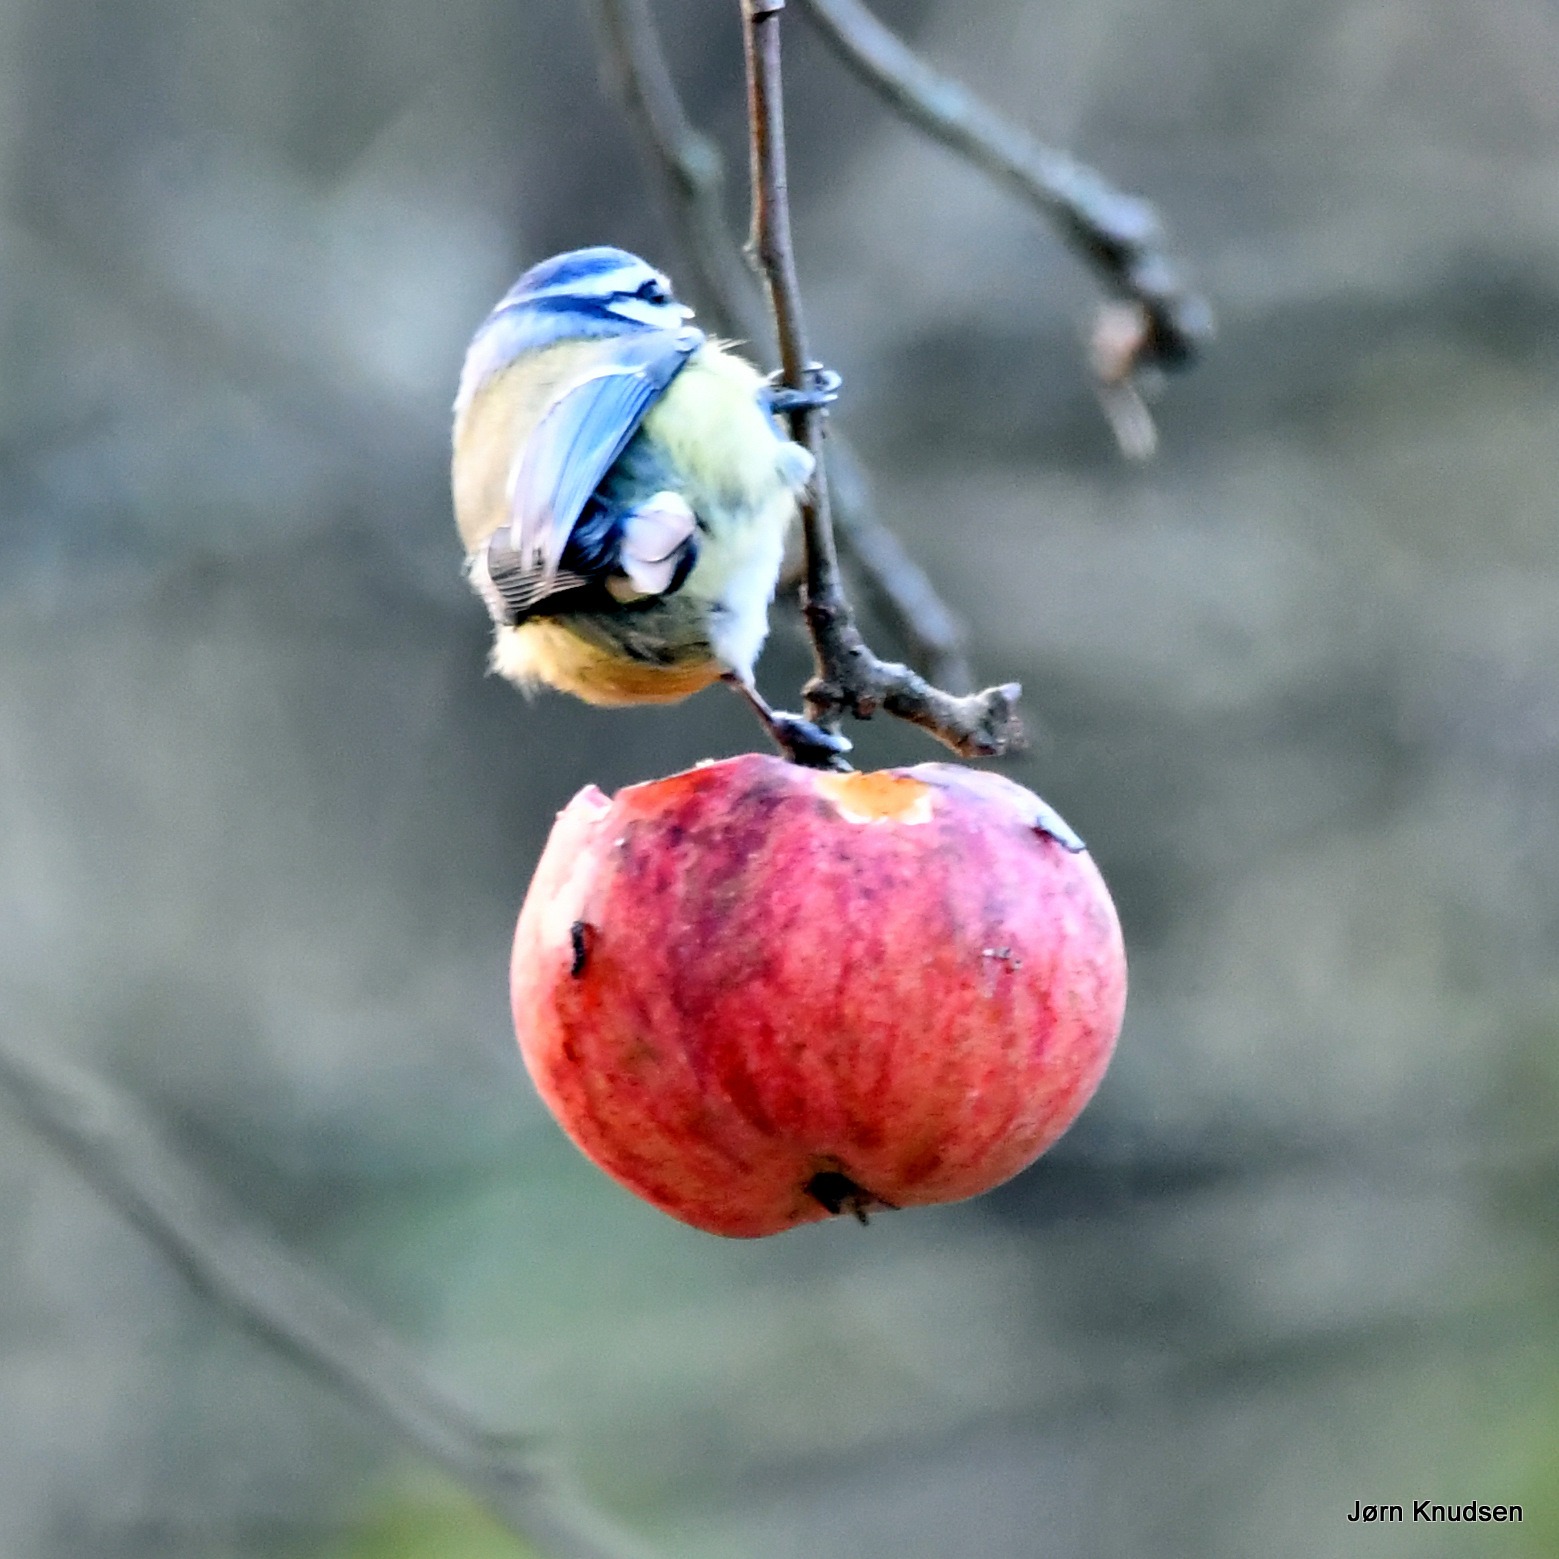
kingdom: Animalia
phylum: Chordata
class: Aves
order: Passeriformes
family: Paridae
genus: Cyanistes
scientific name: Cyanistes caeruleus
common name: Blåmejse
